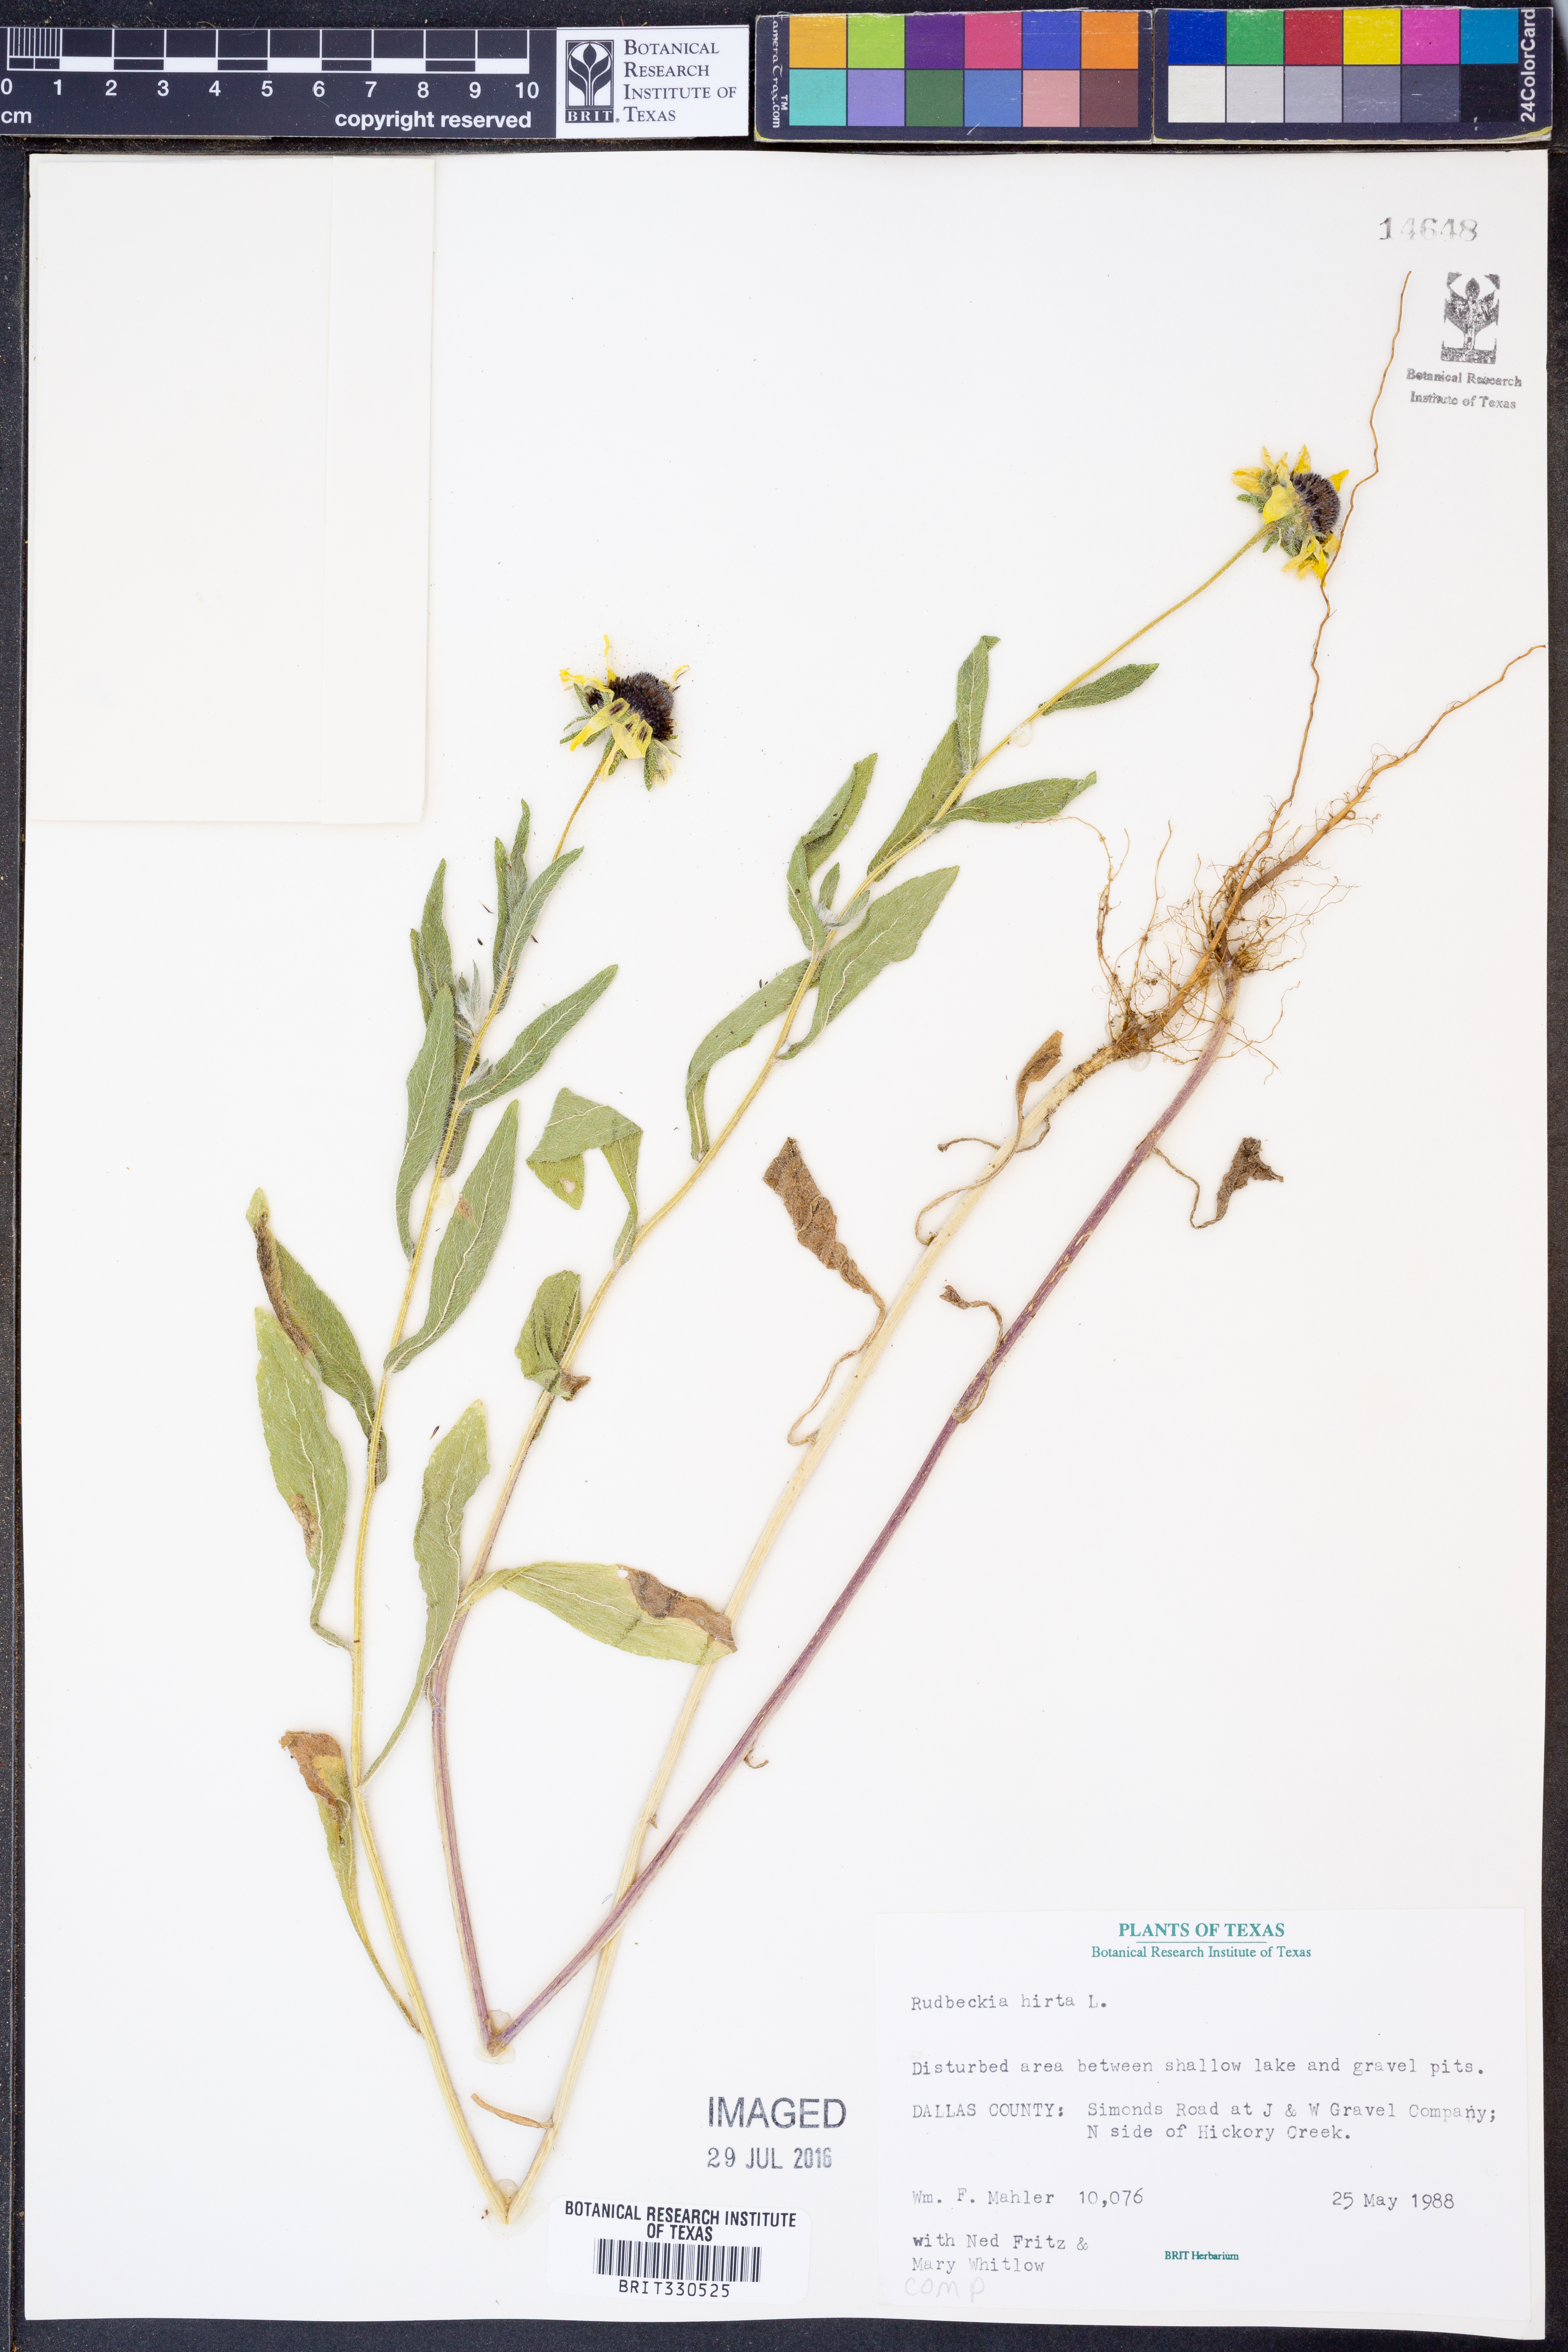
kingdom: Plantae
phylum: Tracheophyta
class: Magnoliopsida
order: Asterales
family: Asteraceae
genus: Rudbeckia
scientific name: Rudbeckia hirta
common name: Black-eyed-susan
